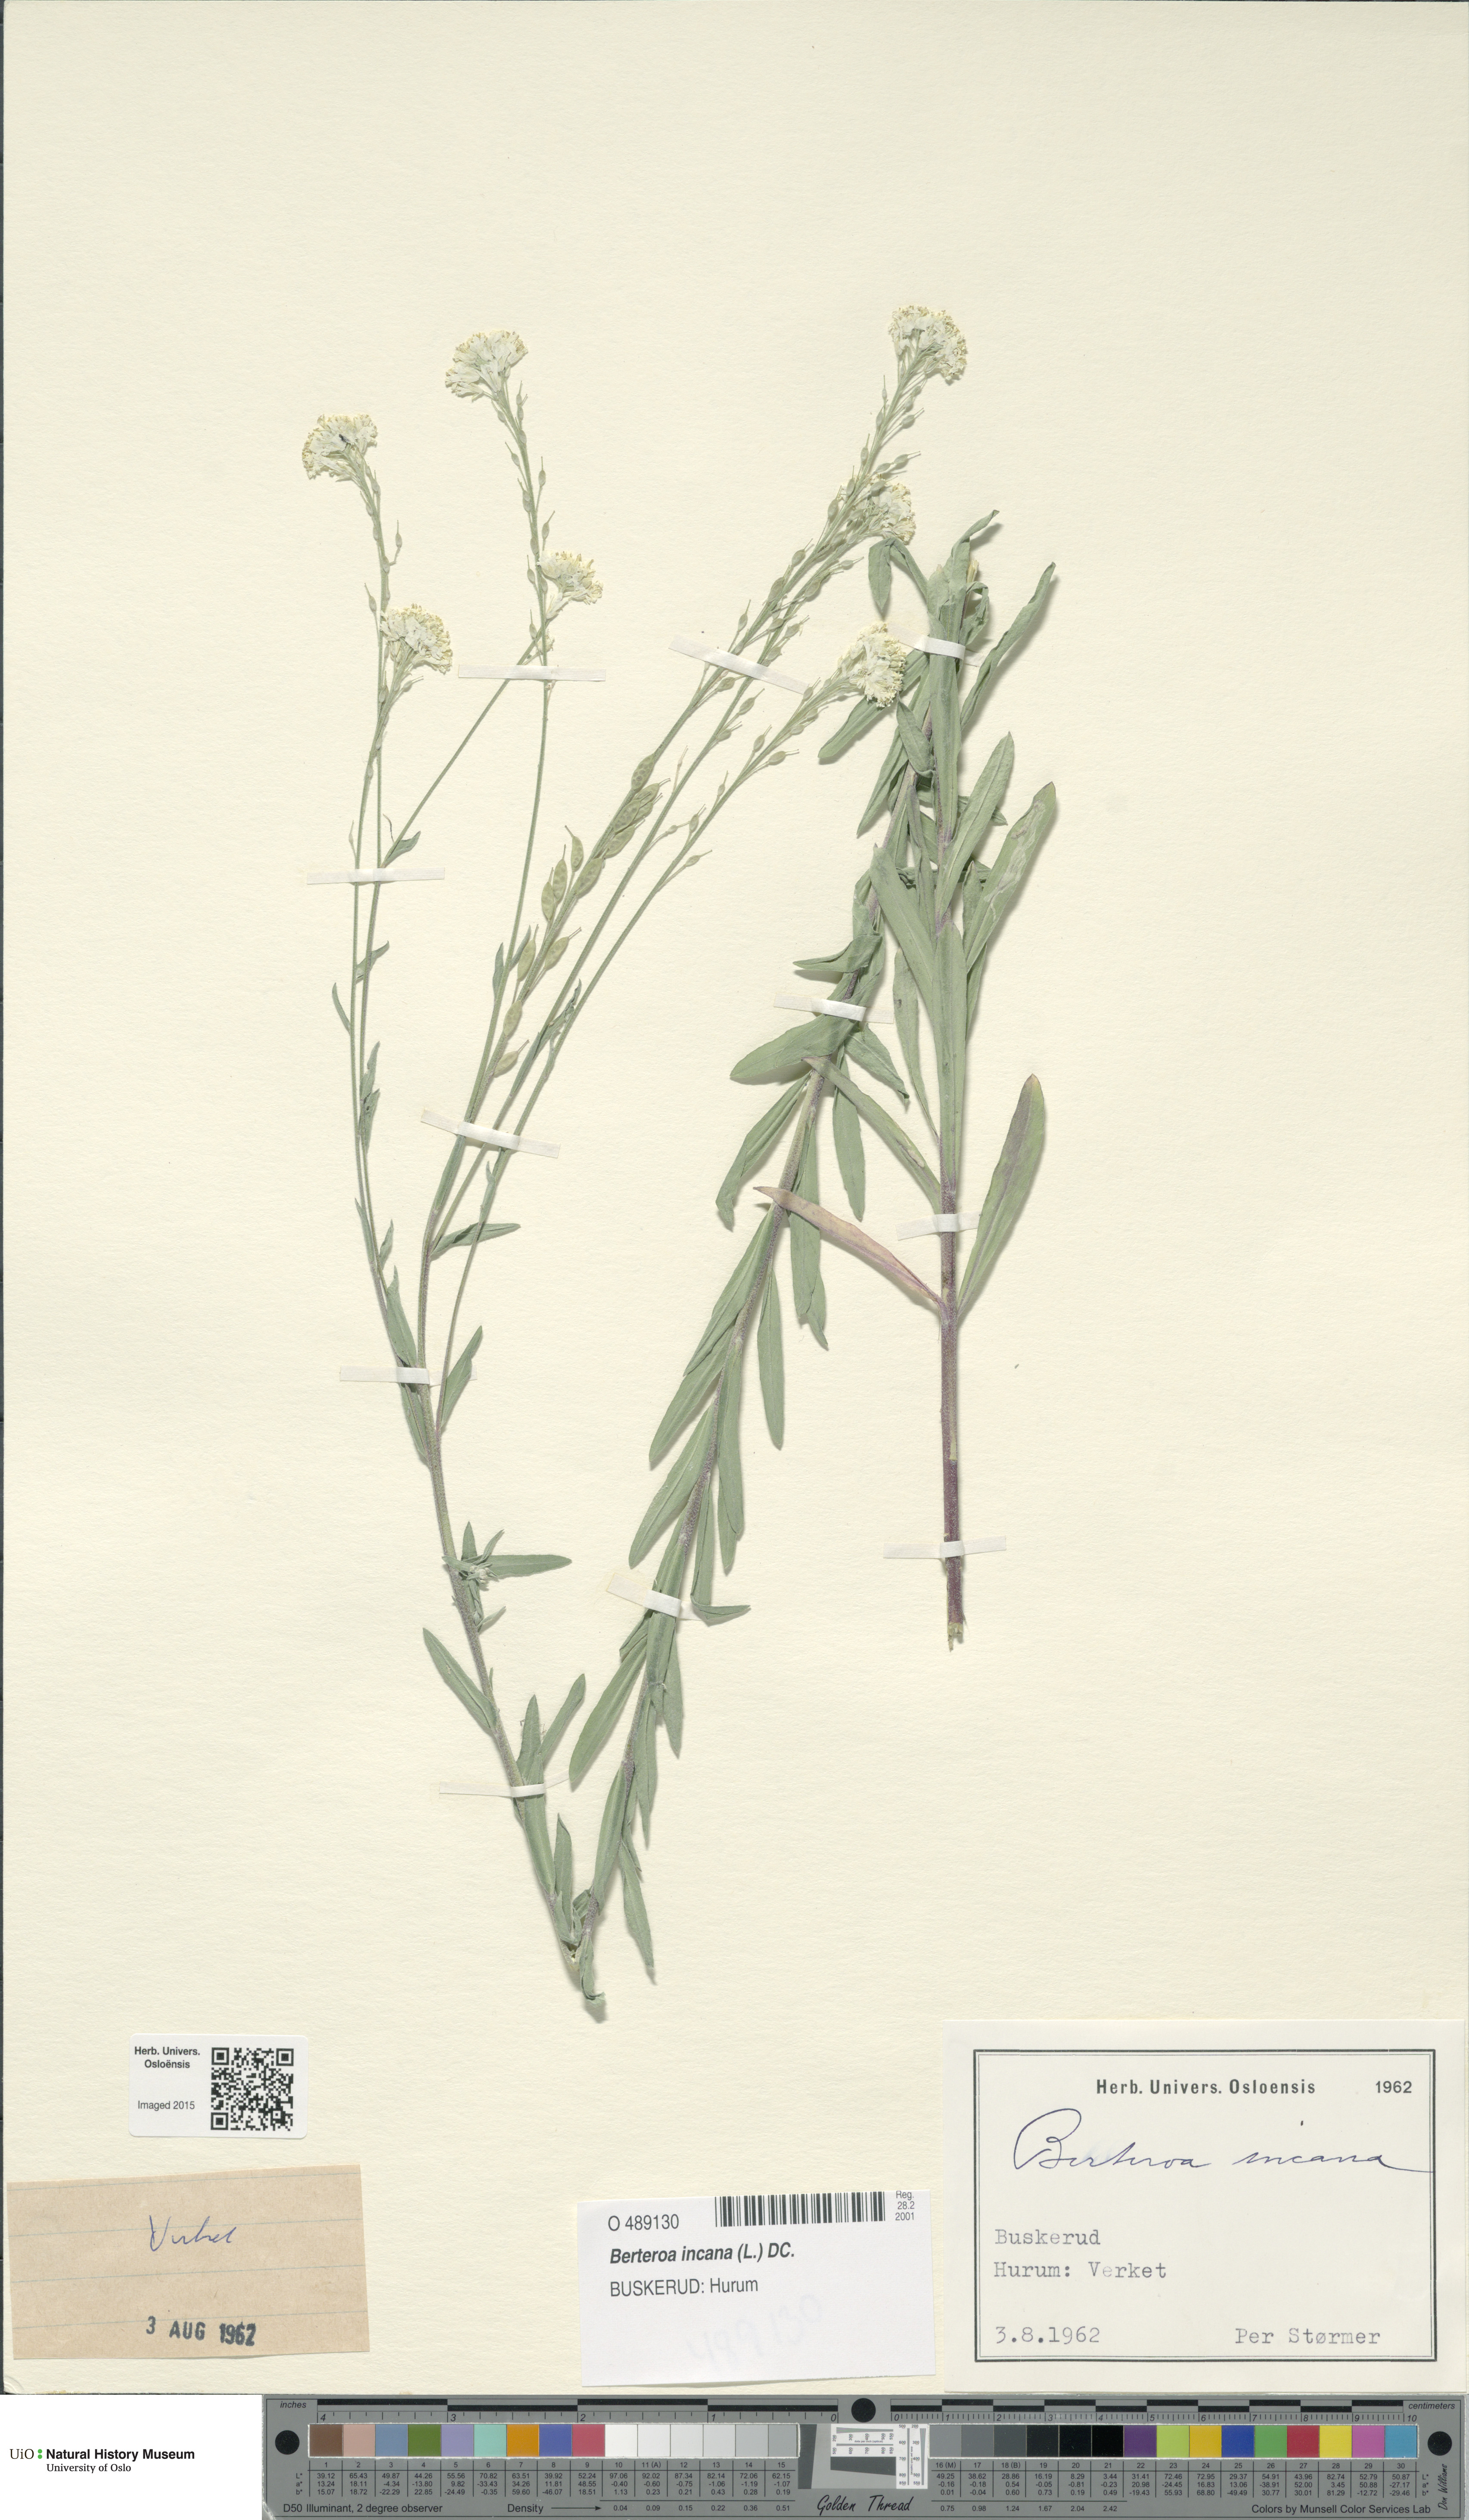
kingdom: Plantae
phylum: Tracheophyta
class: Magnoliopsida
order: Brassicales
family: Brassicaceae
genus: Berteroa
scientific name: Berteroa incana
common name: Hoary alison
